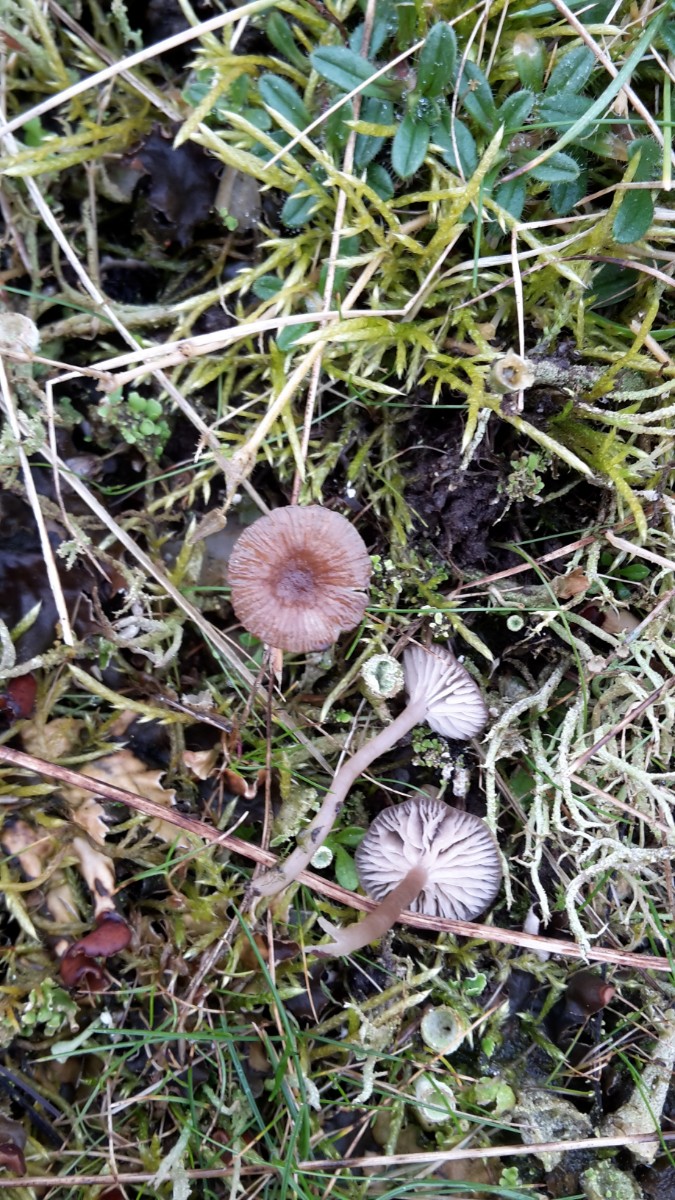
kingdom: Fungi
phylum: Basidiomycota
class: Agaricomycetes
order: Agaricales
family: Tricholomataceae
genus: Gamundia
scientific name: Gamundia xerophila
